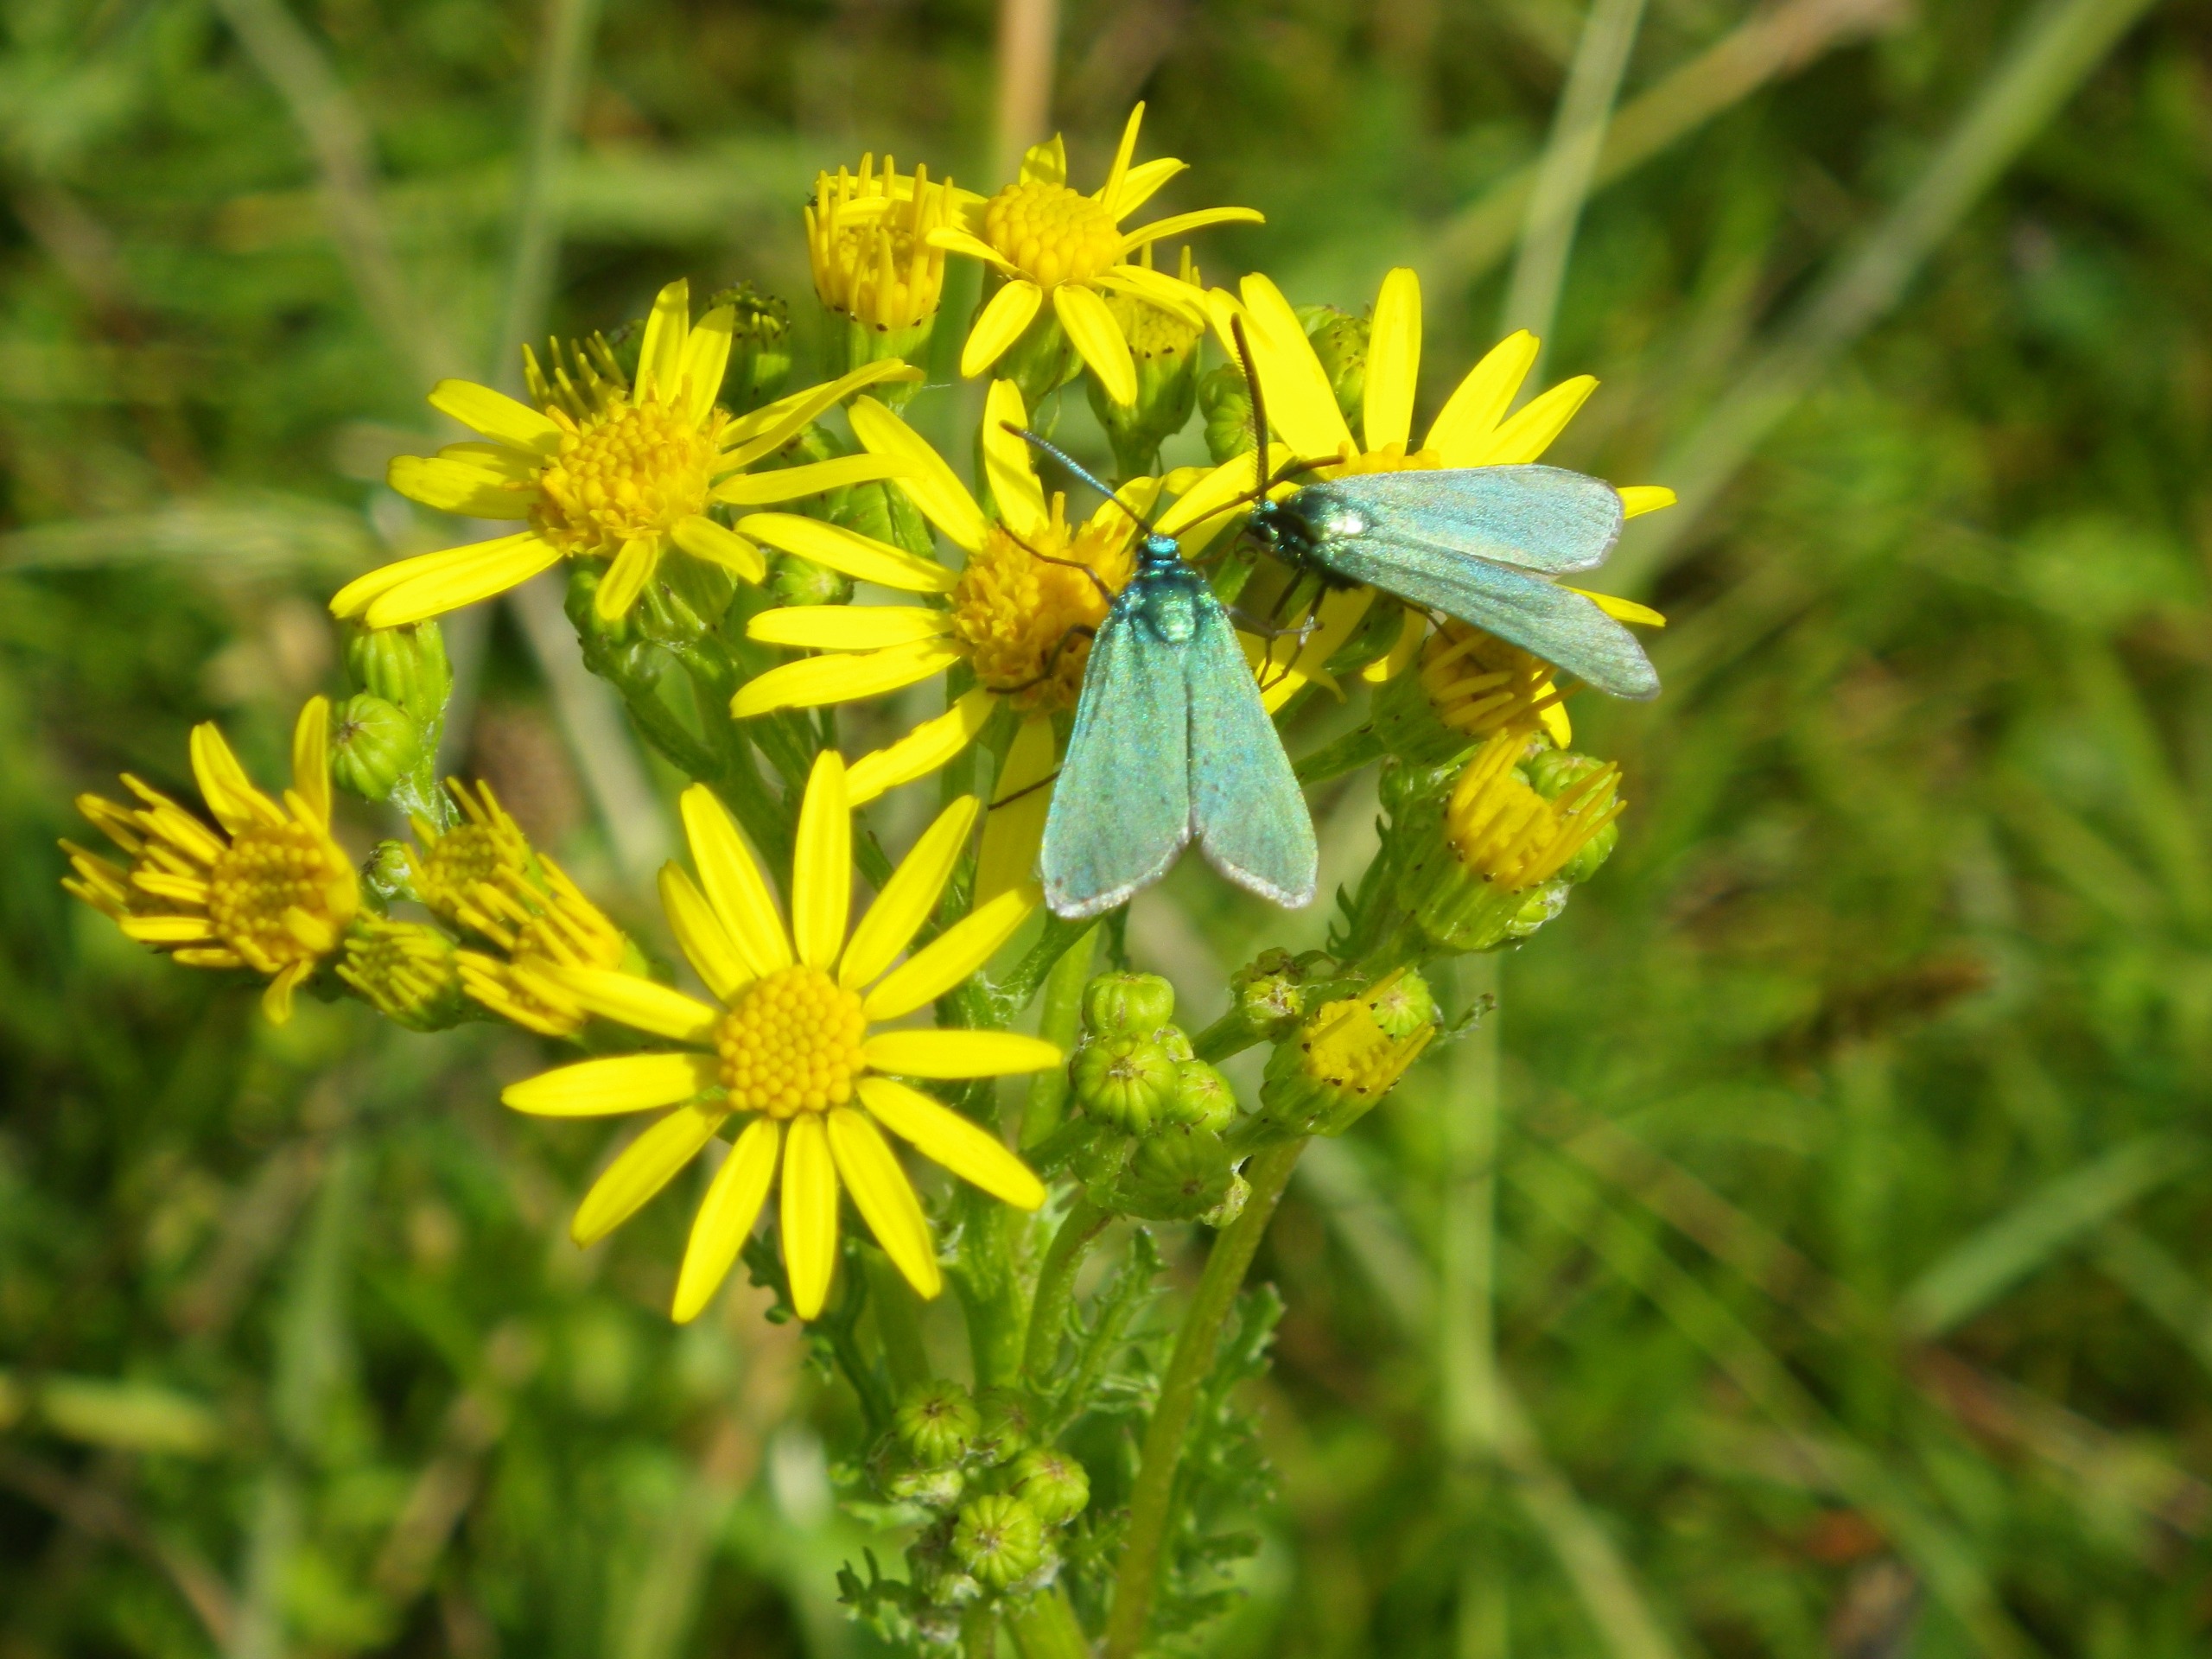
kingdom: Animalia
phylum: Arthropoda
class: Insecta
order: Lepidoptera
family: Zygaenidae
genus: Adscita
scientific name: Adscita statices
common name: Metalvinge
